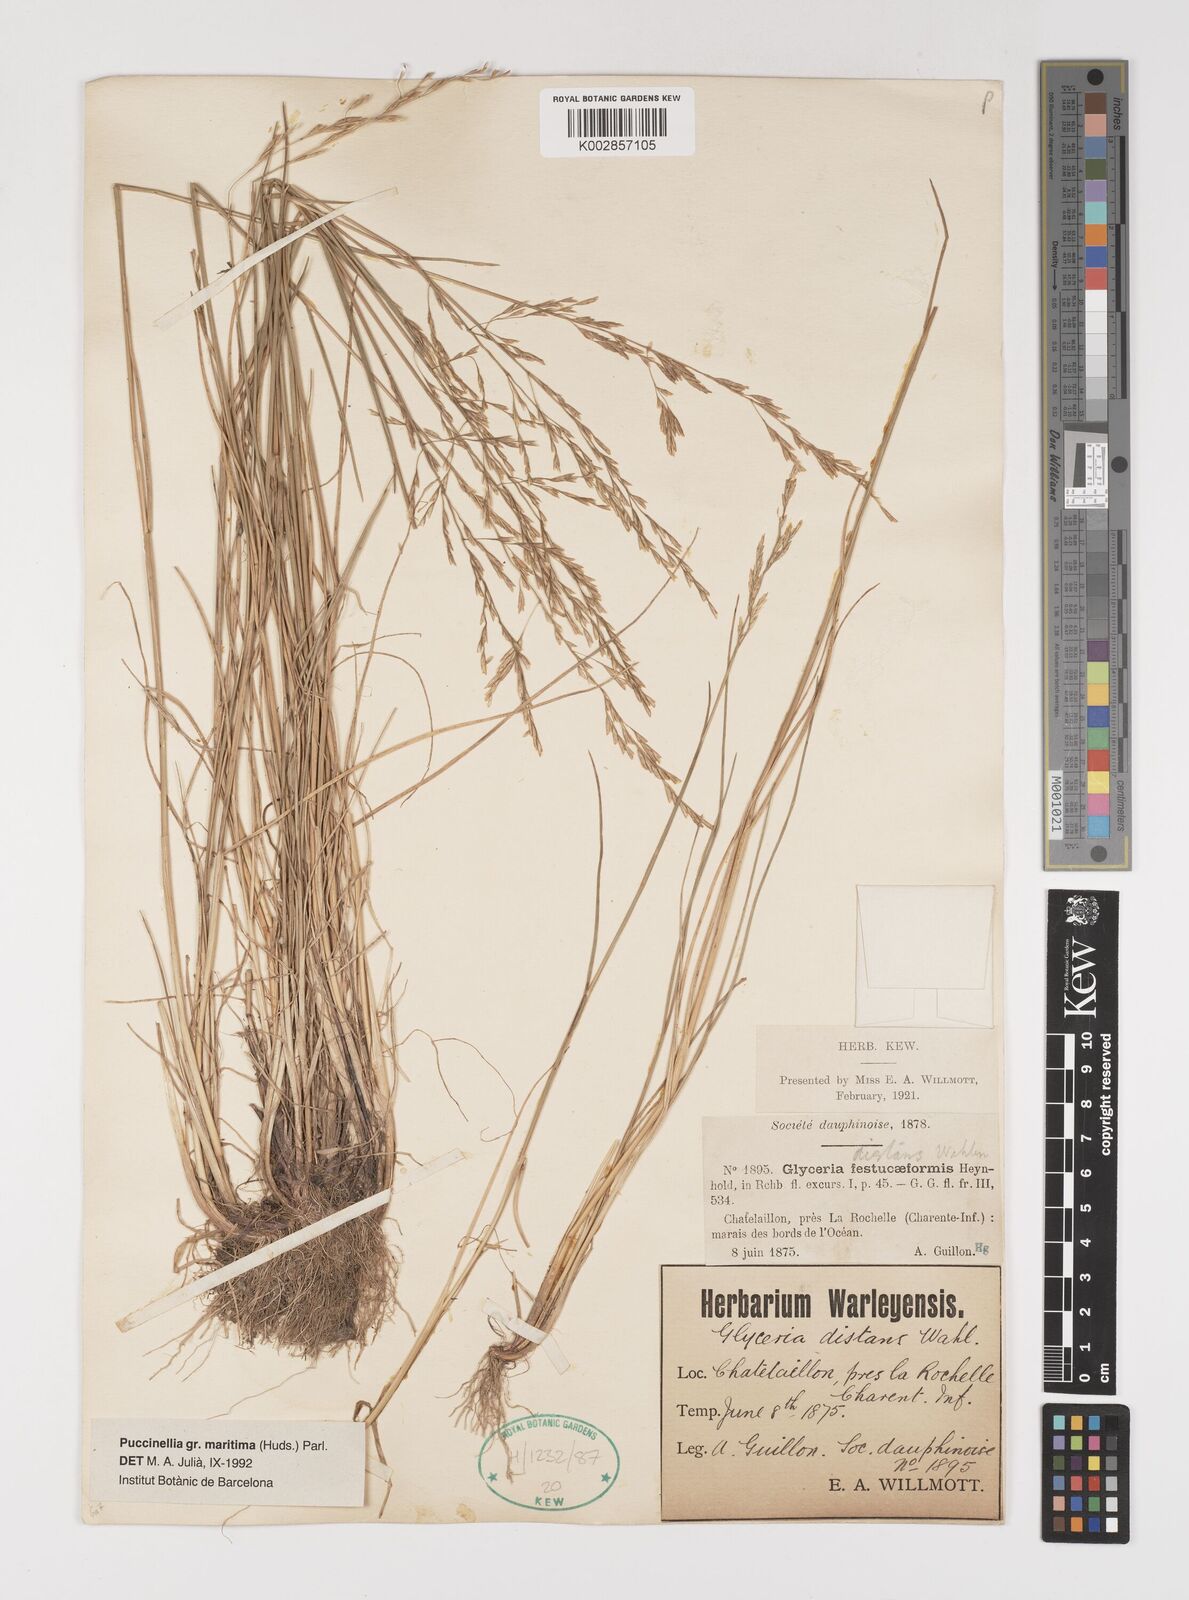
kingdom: Plantae
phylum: Tracheophyta
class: Liliopsida
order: Poales
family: Poaceae
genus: Puccinellia
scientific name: Puccinellia maritima
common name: Common saltmarsh grass
